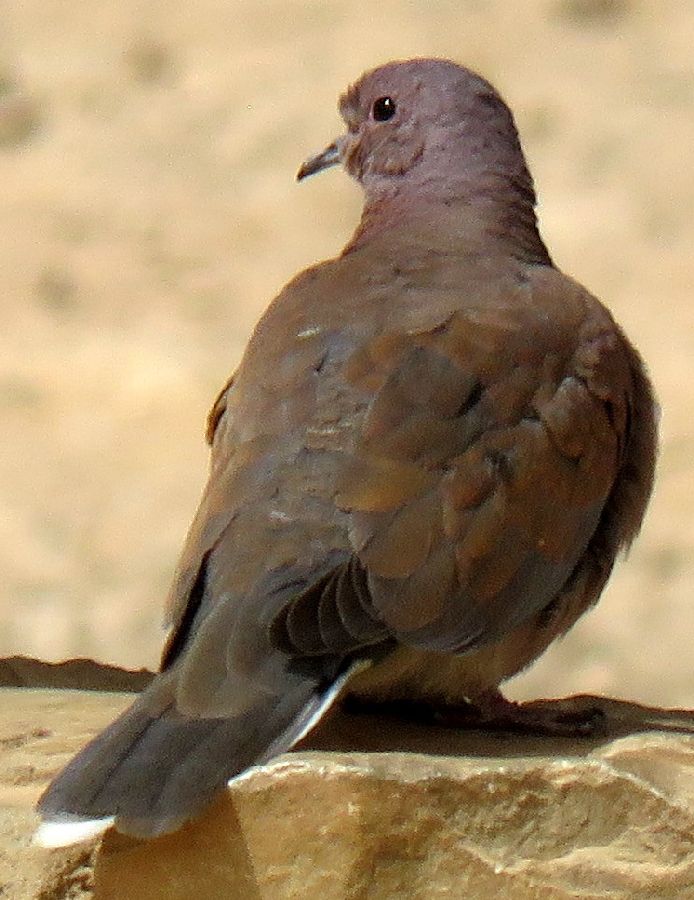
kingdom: Animalia
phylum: Chordata
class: Aves
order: Columbiformes
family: Columbidae
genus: Spilopelia
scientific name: Spilopelia senegalensis
